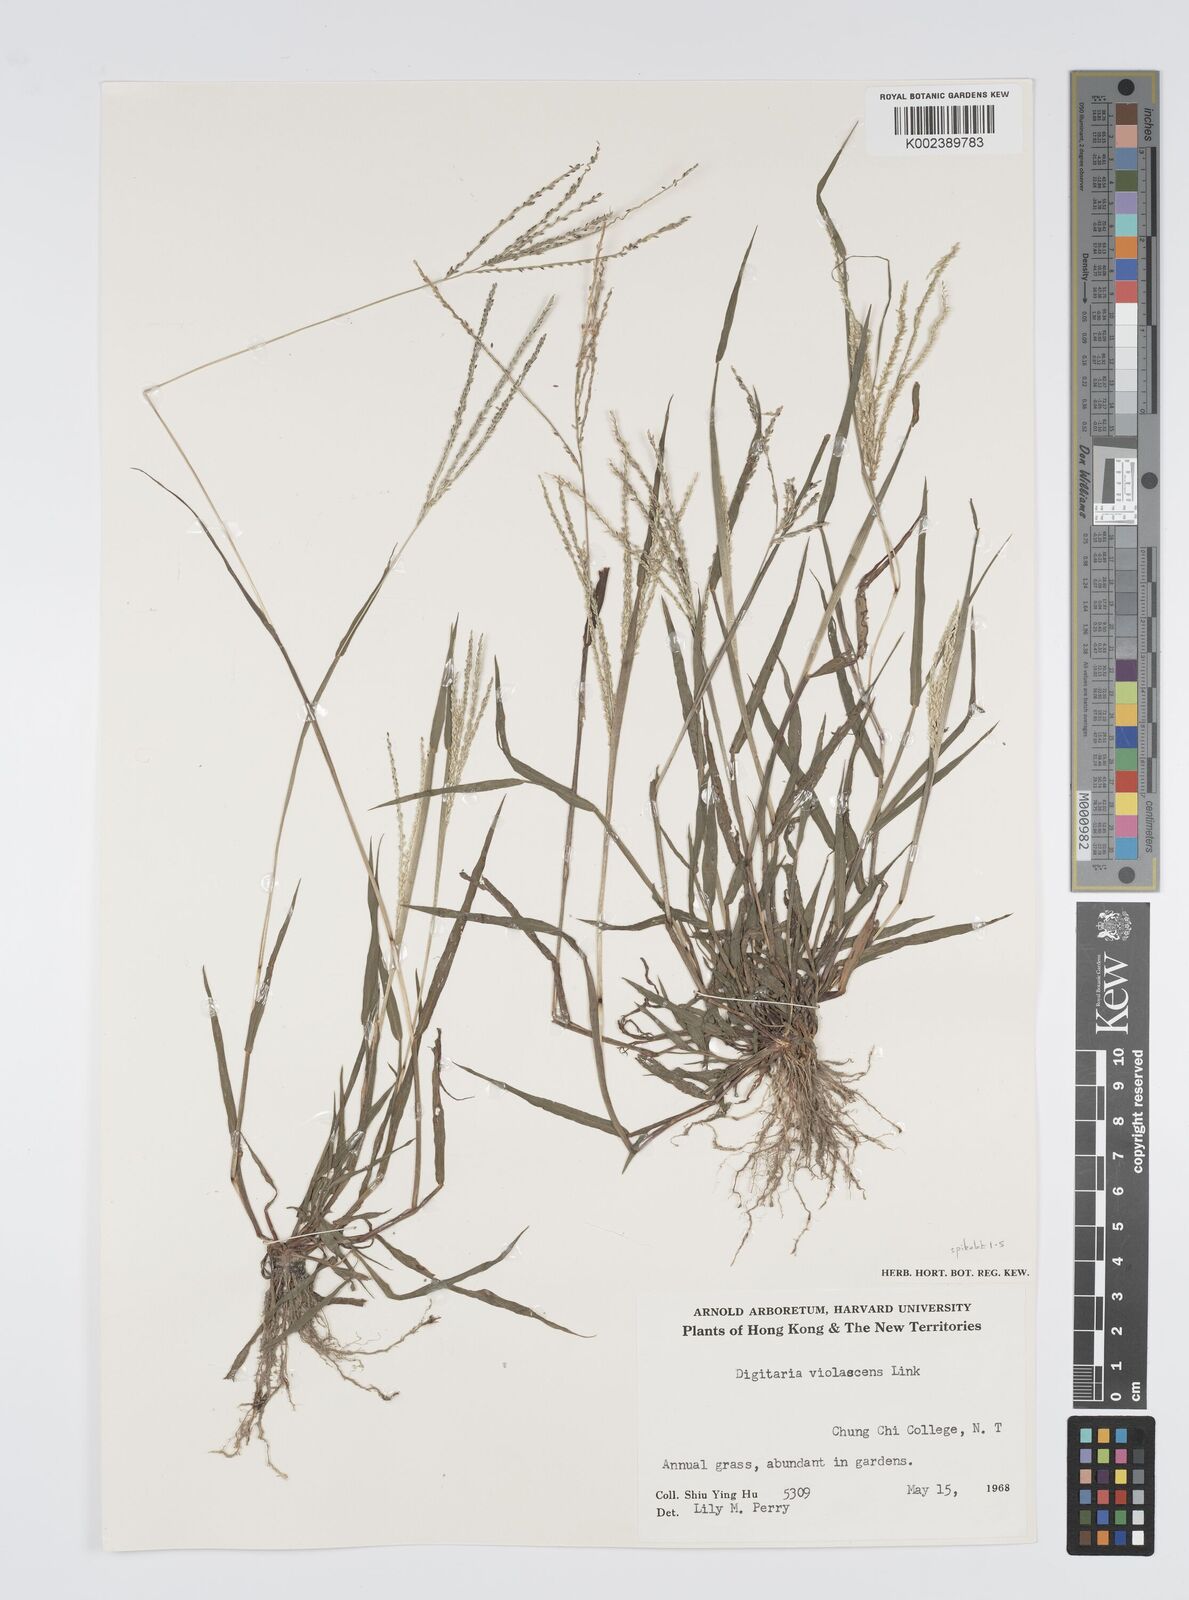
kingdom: Plantae
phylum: Tracheophyta
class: Liliopsida
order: Poales
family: Poaceae
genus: Digitaria
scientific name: Digitaria violascens
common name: Violet crabgrass
